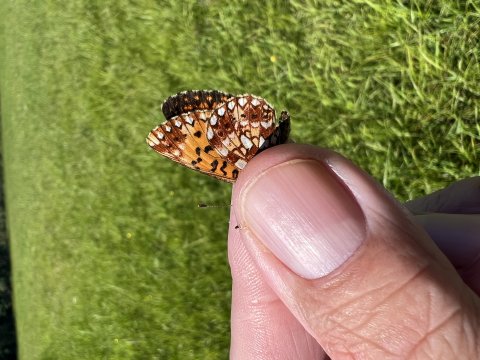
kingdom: Animalia
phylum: Arthropoda
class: Insecta
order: Lepidoptera
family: Nymphalidae
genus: Boloria
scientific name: Boloria selene
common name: Silver-bordered Fritillary
